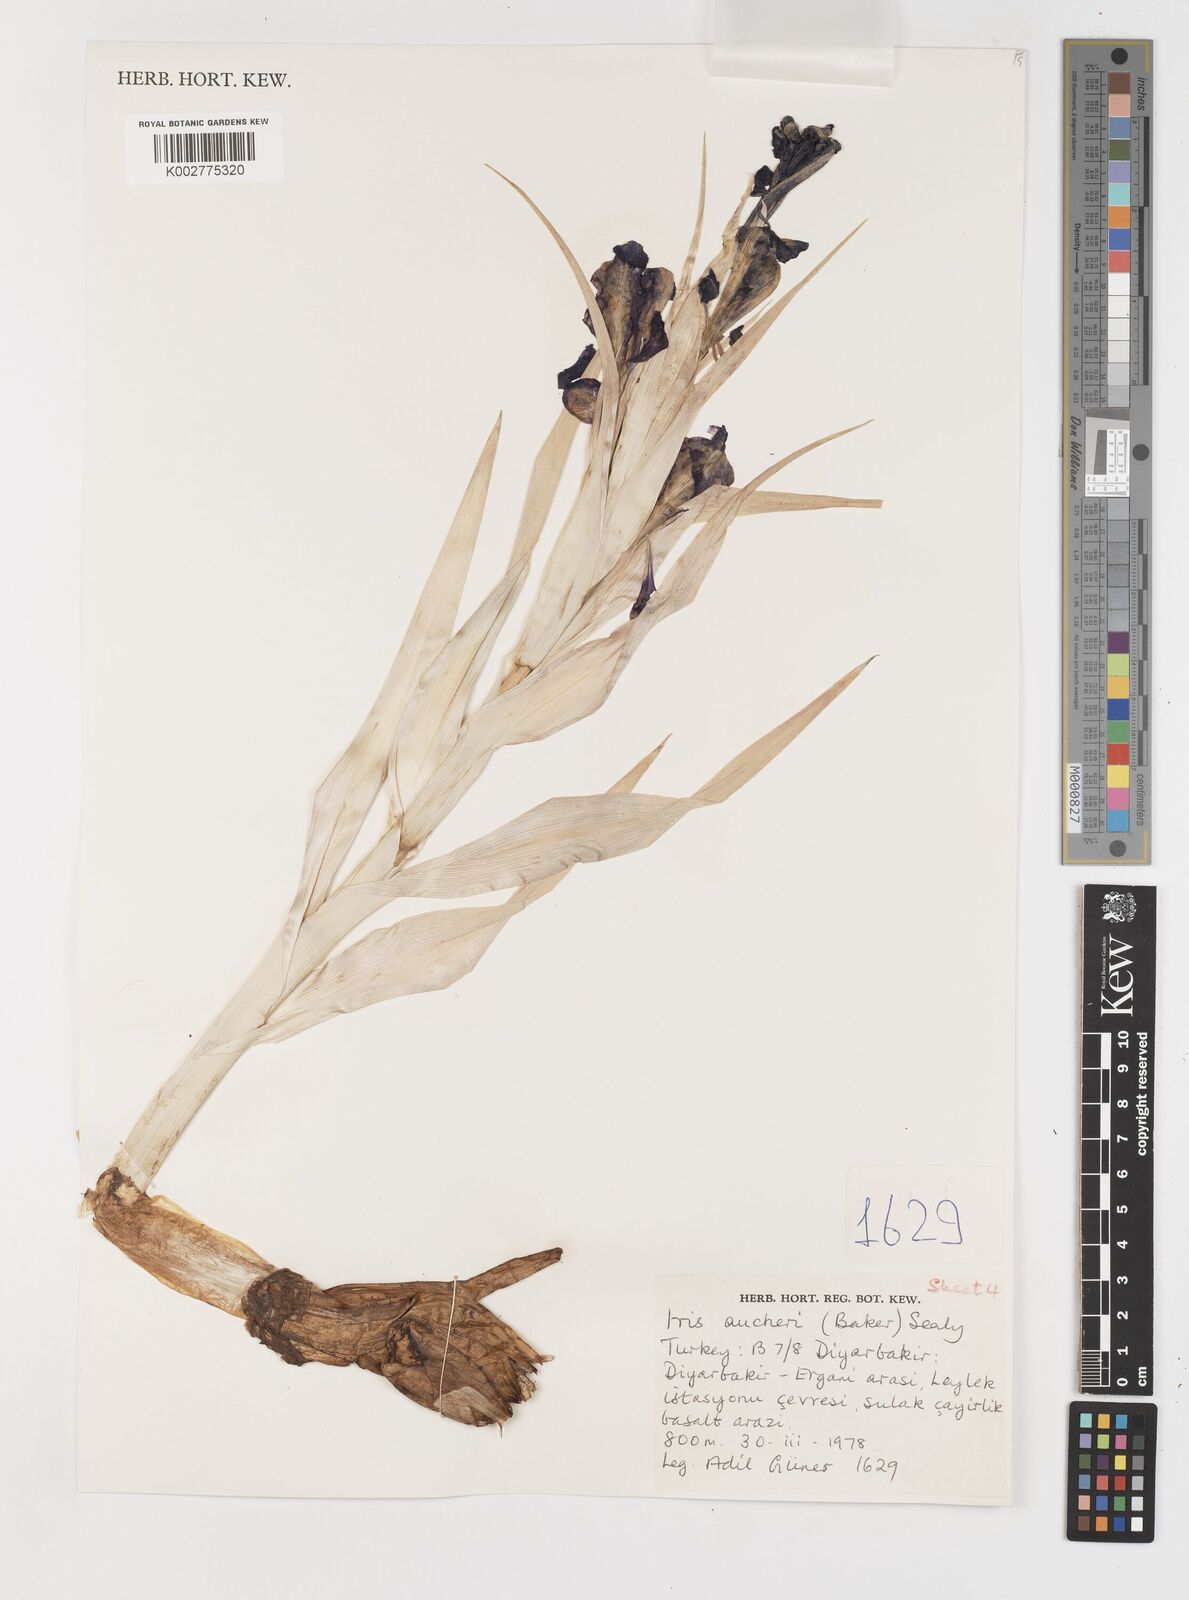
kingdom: Plantae
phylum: Tracheophyta
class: Liliopsida
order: Asparagales
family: Iridaceae
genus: Iris
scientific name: Iris aucheri
